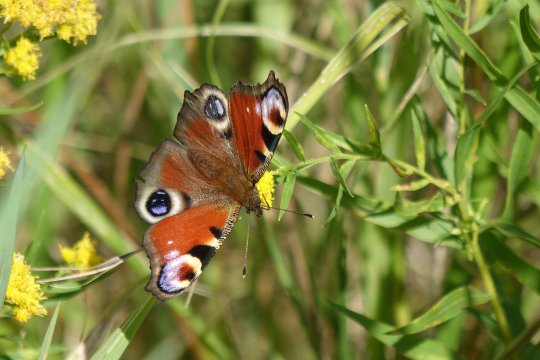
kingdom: Animalia
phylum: Arthropoda
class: Insecta
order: Lepidoptera
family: Nymphalidae
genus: Aglais
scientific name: Aglais io
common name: European Peacock
